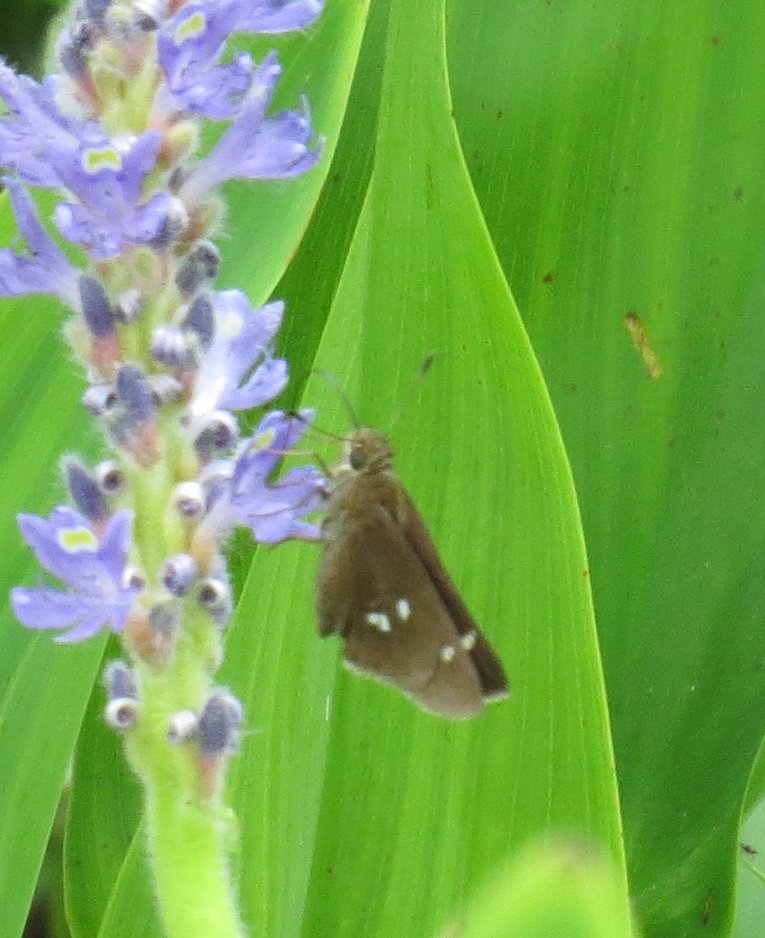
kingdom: Animalia
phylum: Arthropoda
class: Insecta
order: Lepidoptera
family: Hesperiidae
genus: Oligoria
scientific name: Oligoria maculata
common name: Twin-spot Skipper
